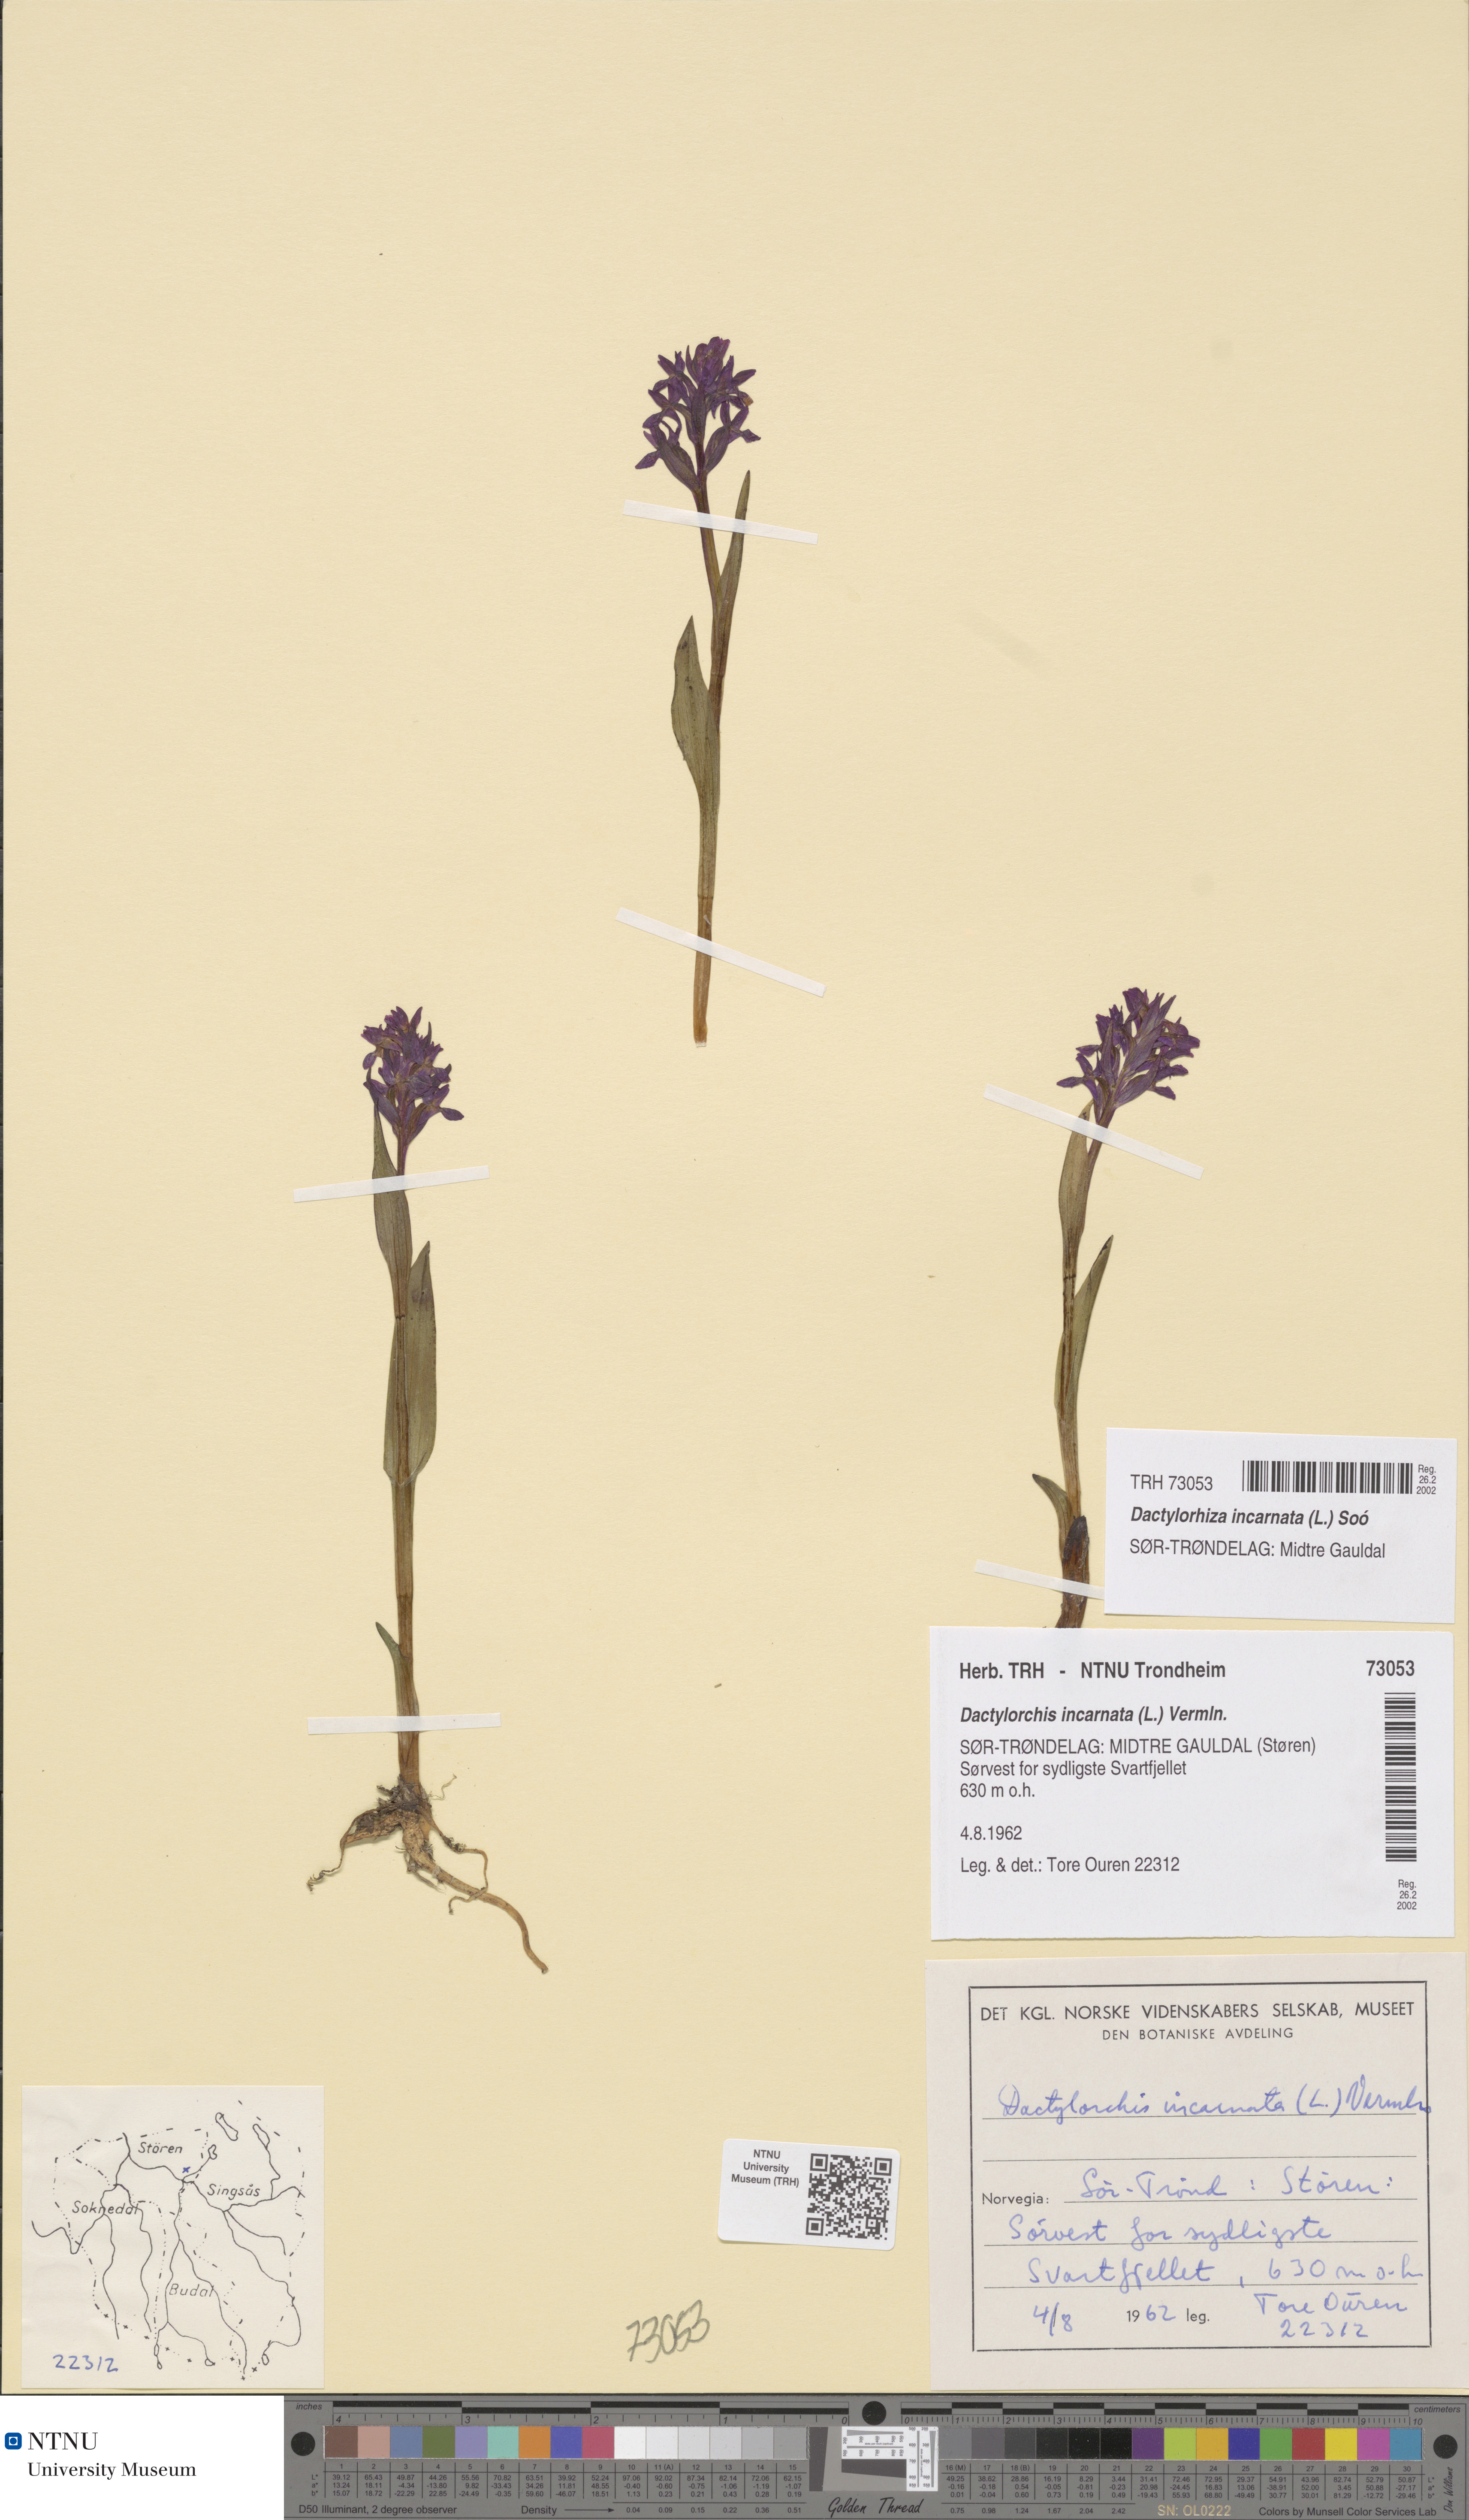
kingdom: Plantae
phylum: Tracheophyta
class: Liliopsida
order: Asparagales
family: Orchidaceae
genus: Dactylorhiza
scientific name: Dactylorhiza incarnata
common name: Early marsh-orchid
